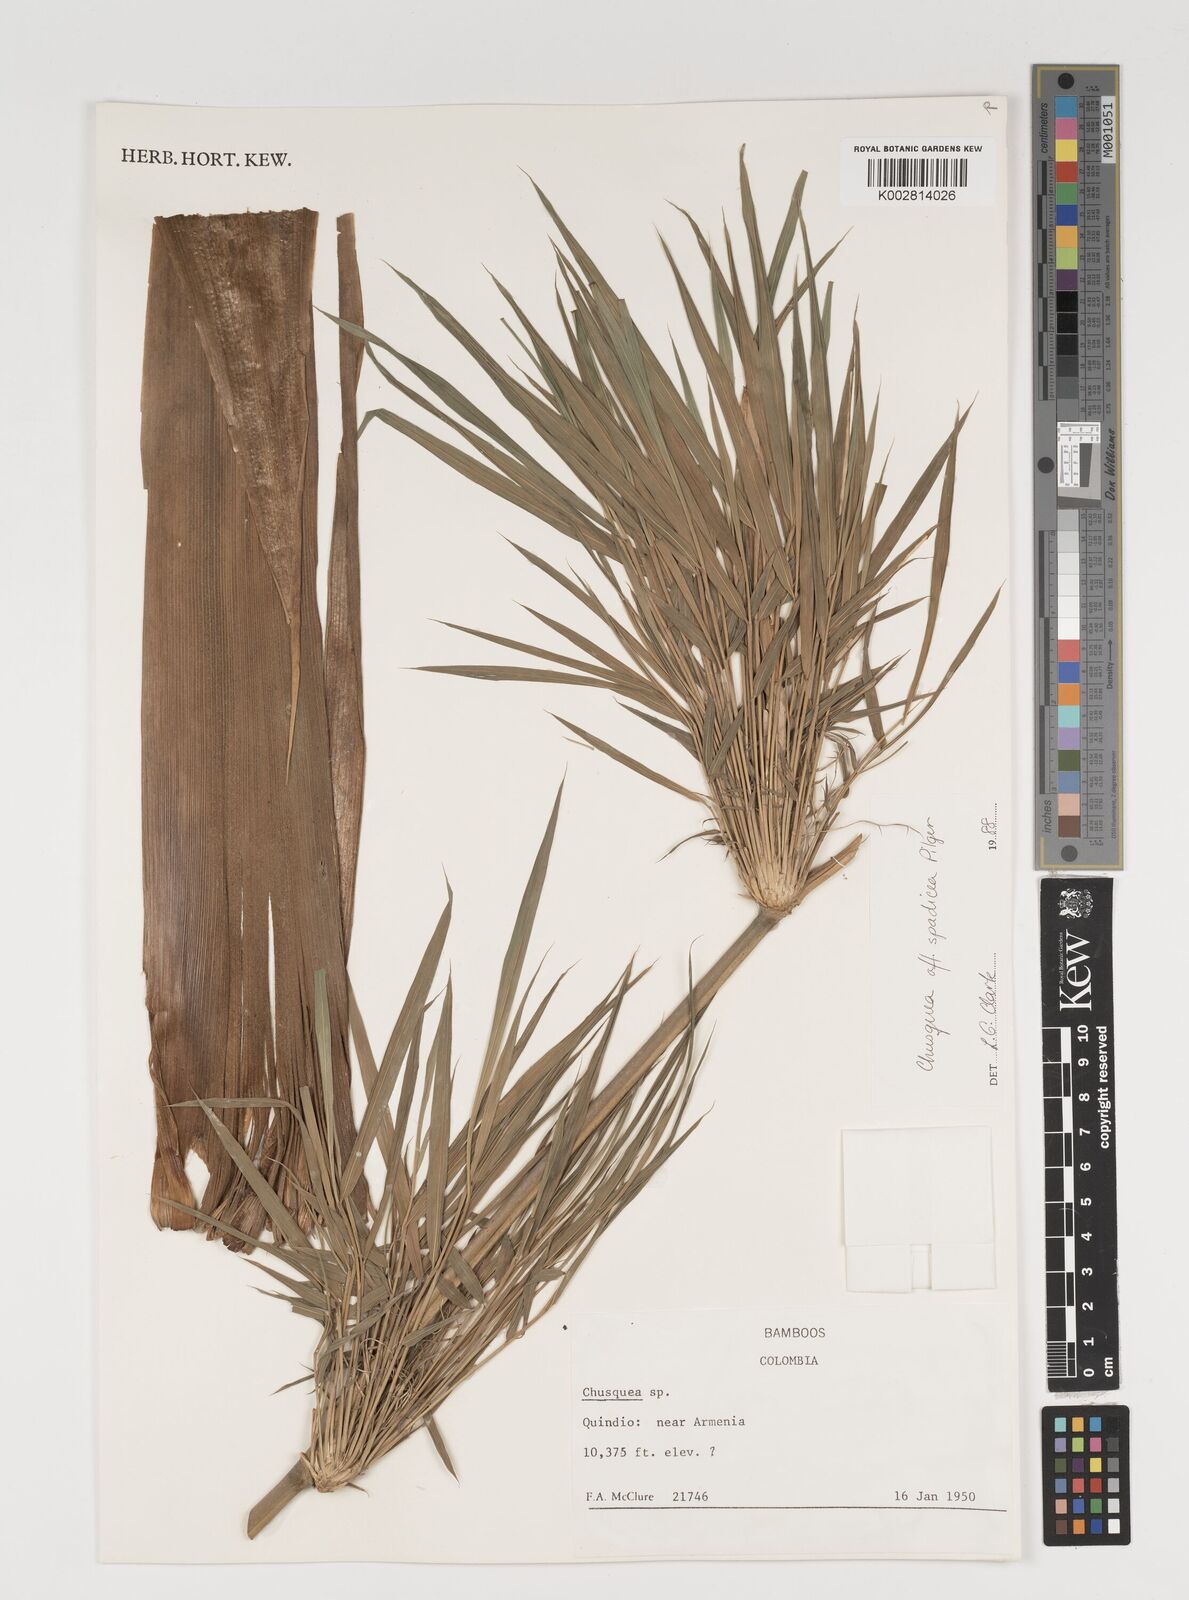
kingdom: Plantae
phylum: Tracheophyta
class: Liliopsida
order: Poales
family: Poaceae
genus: Chusquea
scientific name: Chusquea
